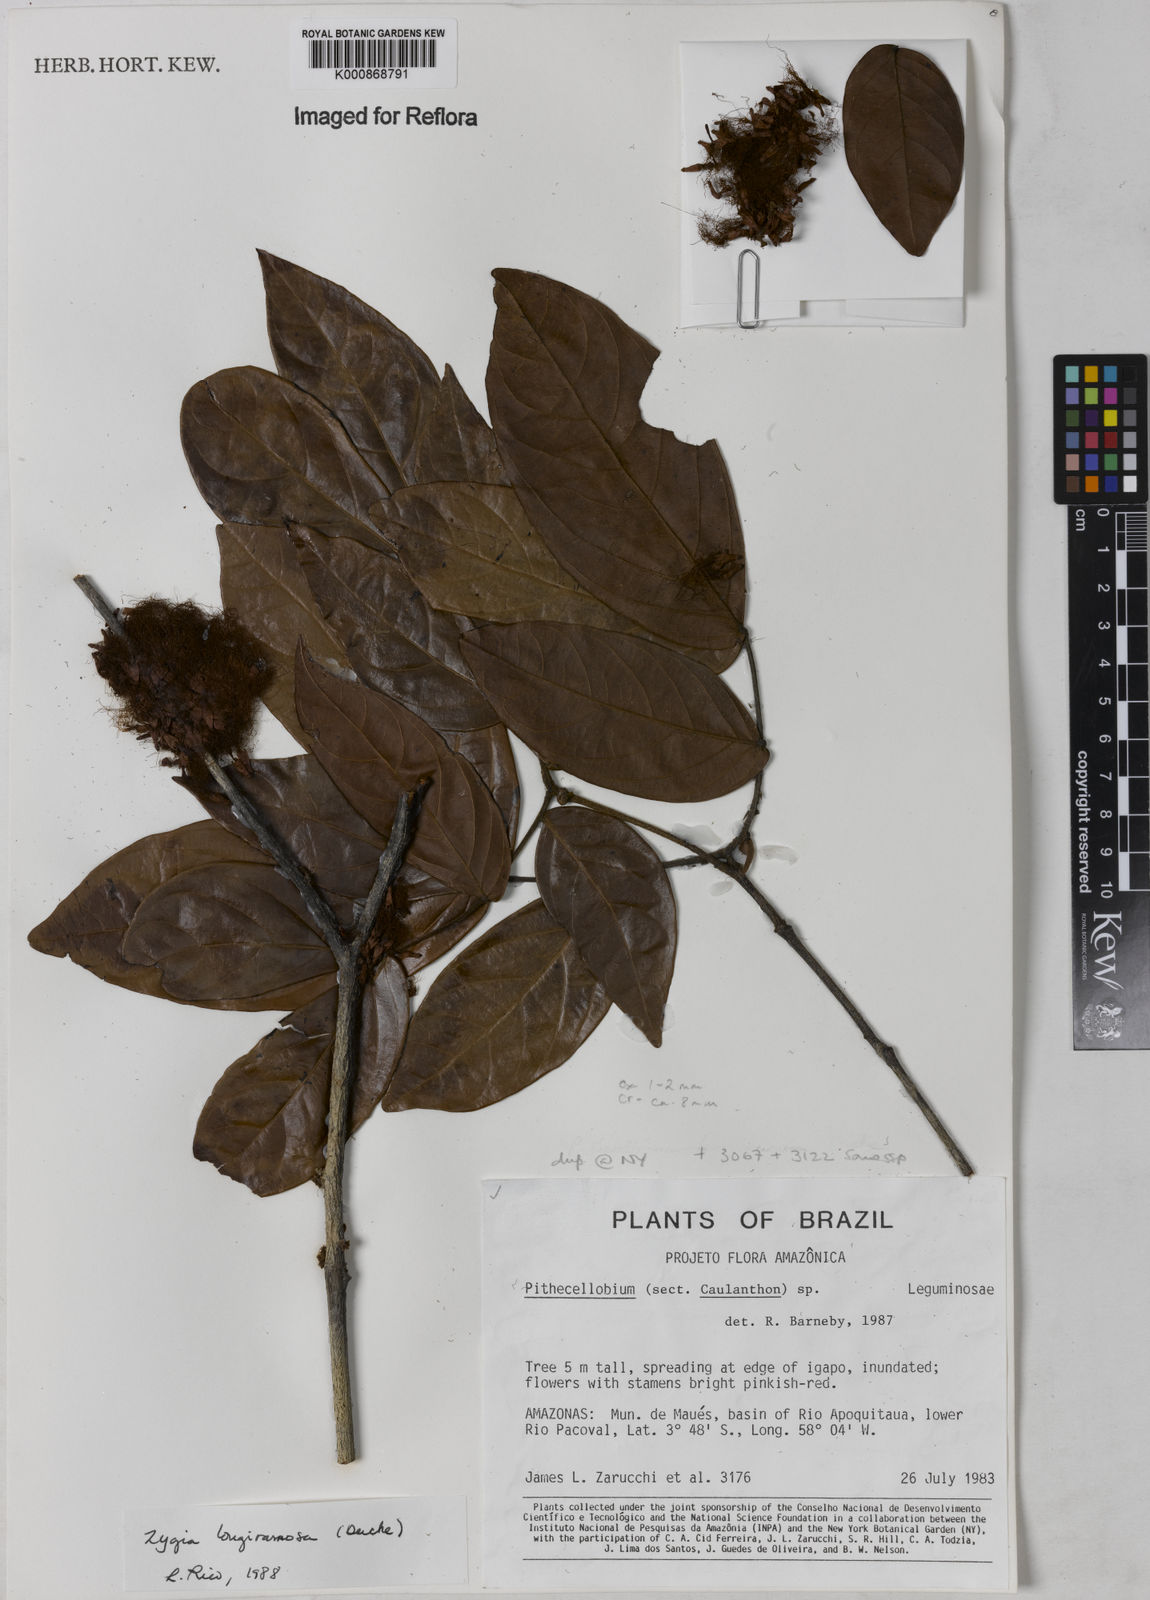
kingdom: Plantae
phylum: Tracheophyta
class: Magnoliopsida
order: Fabales
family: Fabaceae
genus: Zygia
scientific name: Zygia inaequalis
